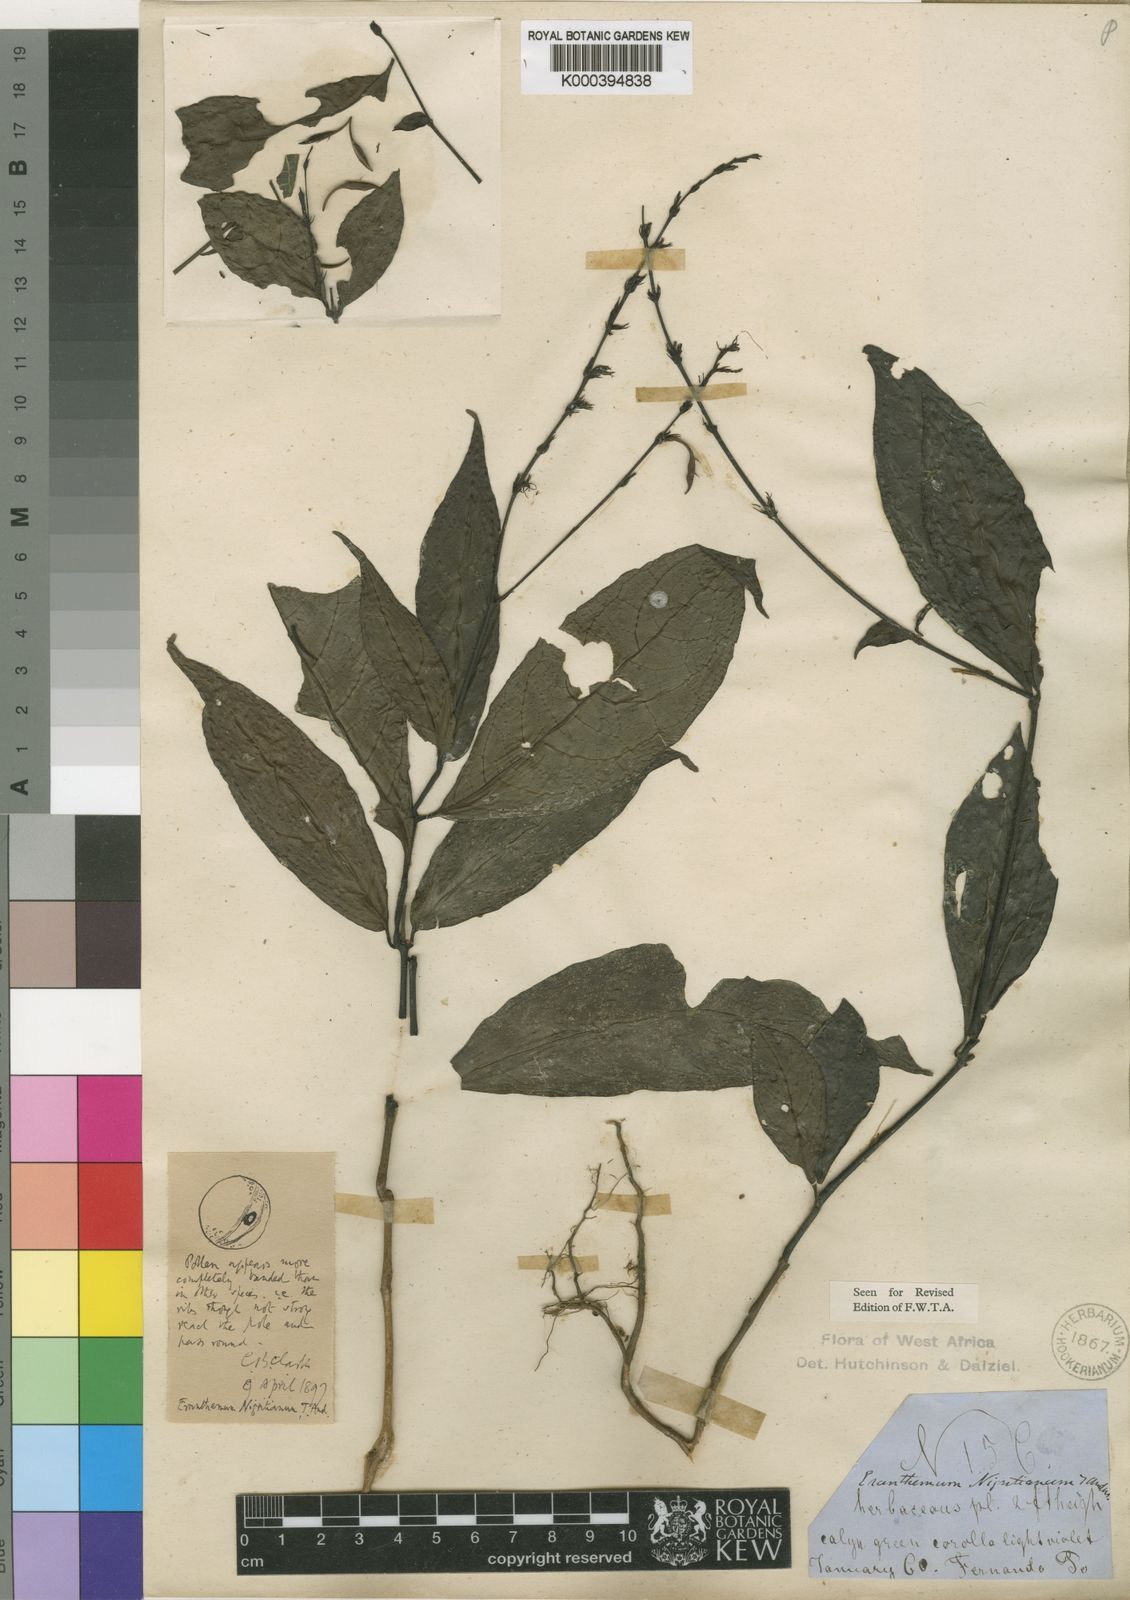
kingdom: Plantae
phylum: Tracheophyta
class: Magnoliopsida
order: Lamiales
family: Acanthaceae
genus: Pseuderanthemum
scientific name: Pseuderanthemum tunicatum
